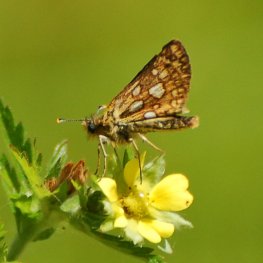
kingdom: Animalia
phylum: Arthropoda
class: Insecta
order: Lepidoptera
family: Hesperiidae
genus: Carterocephalus
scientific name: Carterocephalus palaemon
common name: Chequered Skipper
